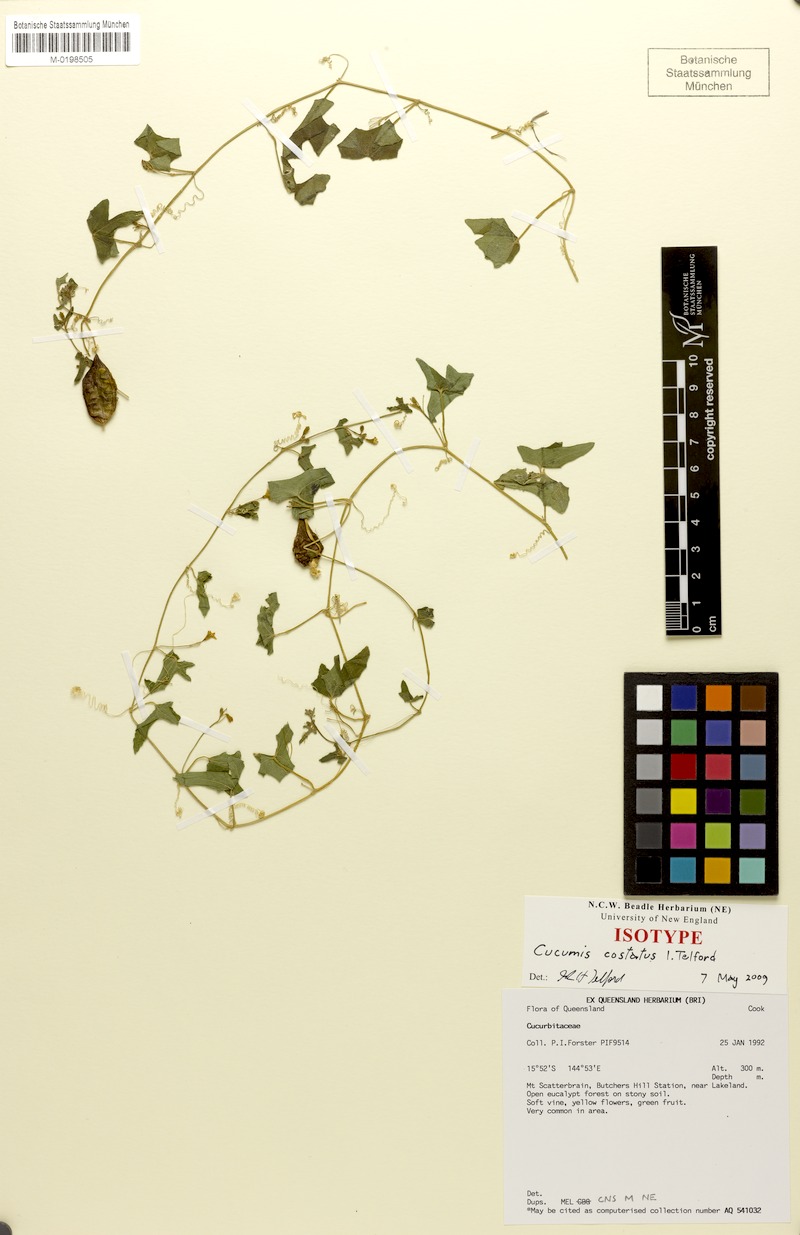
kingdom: Plantae
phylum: Tracheophyta
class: Magnoliopsida
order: Cucurbitales
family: Cucurbitaceae
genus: Cucumis
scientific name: Cucumis costatus
